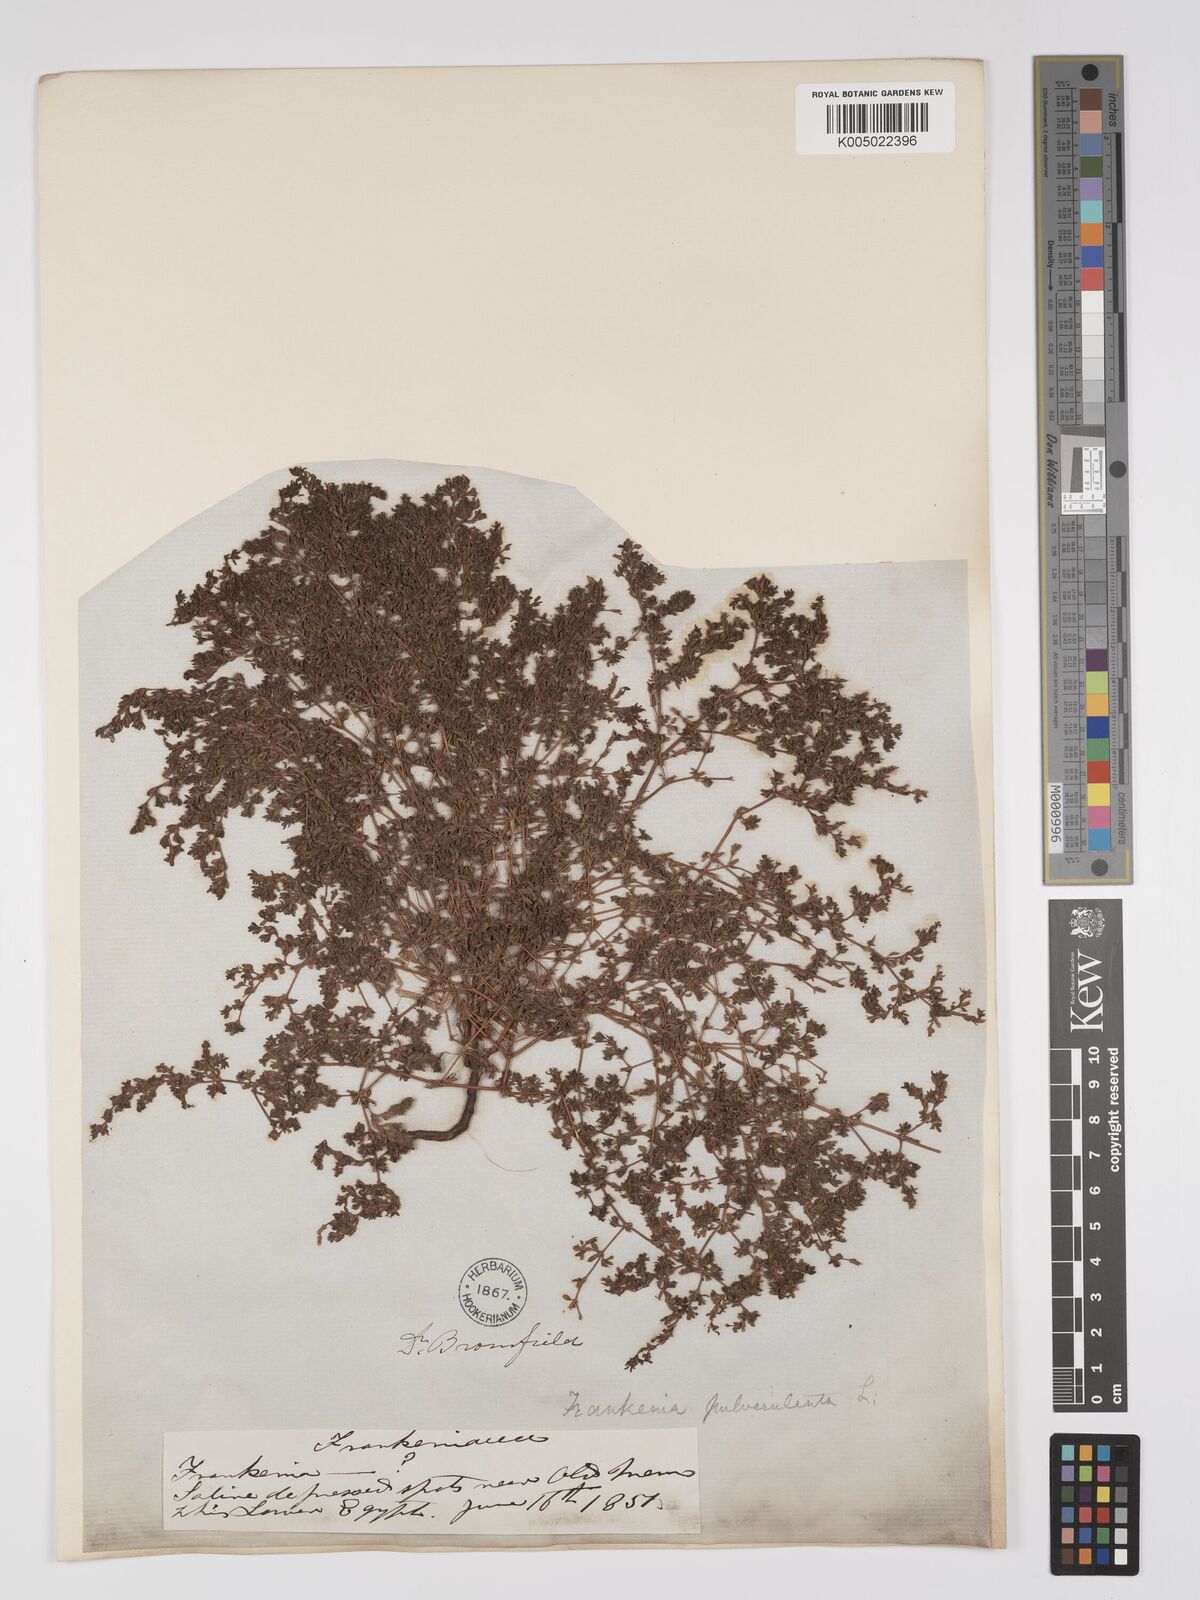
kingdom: Plantae
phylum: Tracheophyta
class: Magnoliopsida
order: Caryophyllales
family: Frankeniaceae
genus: Frankenia
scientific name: Frankenia pulverulenta
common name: European seaheath
